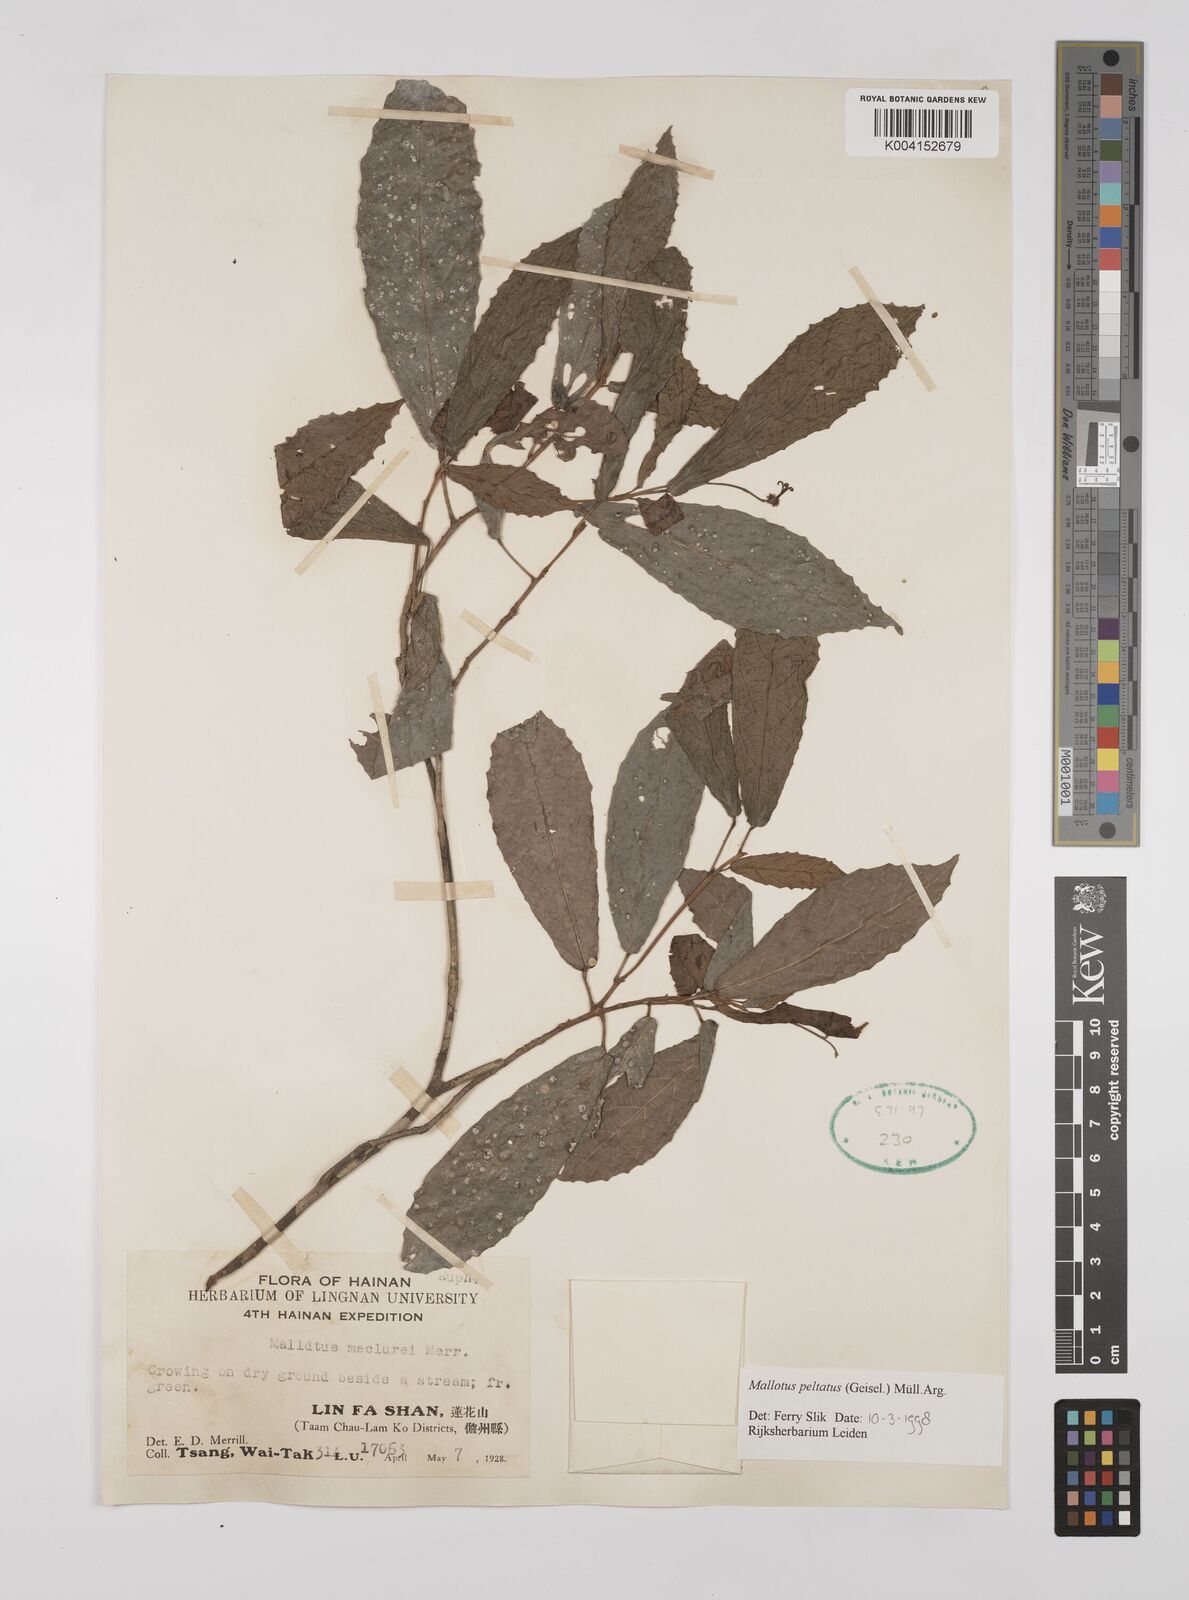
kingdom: Plantae
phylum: Tracheophyta
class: Magnoliopsida
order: Malpighiales
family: Euphorbiaceae
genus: Mallotus
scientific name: Mallotus peltatus
